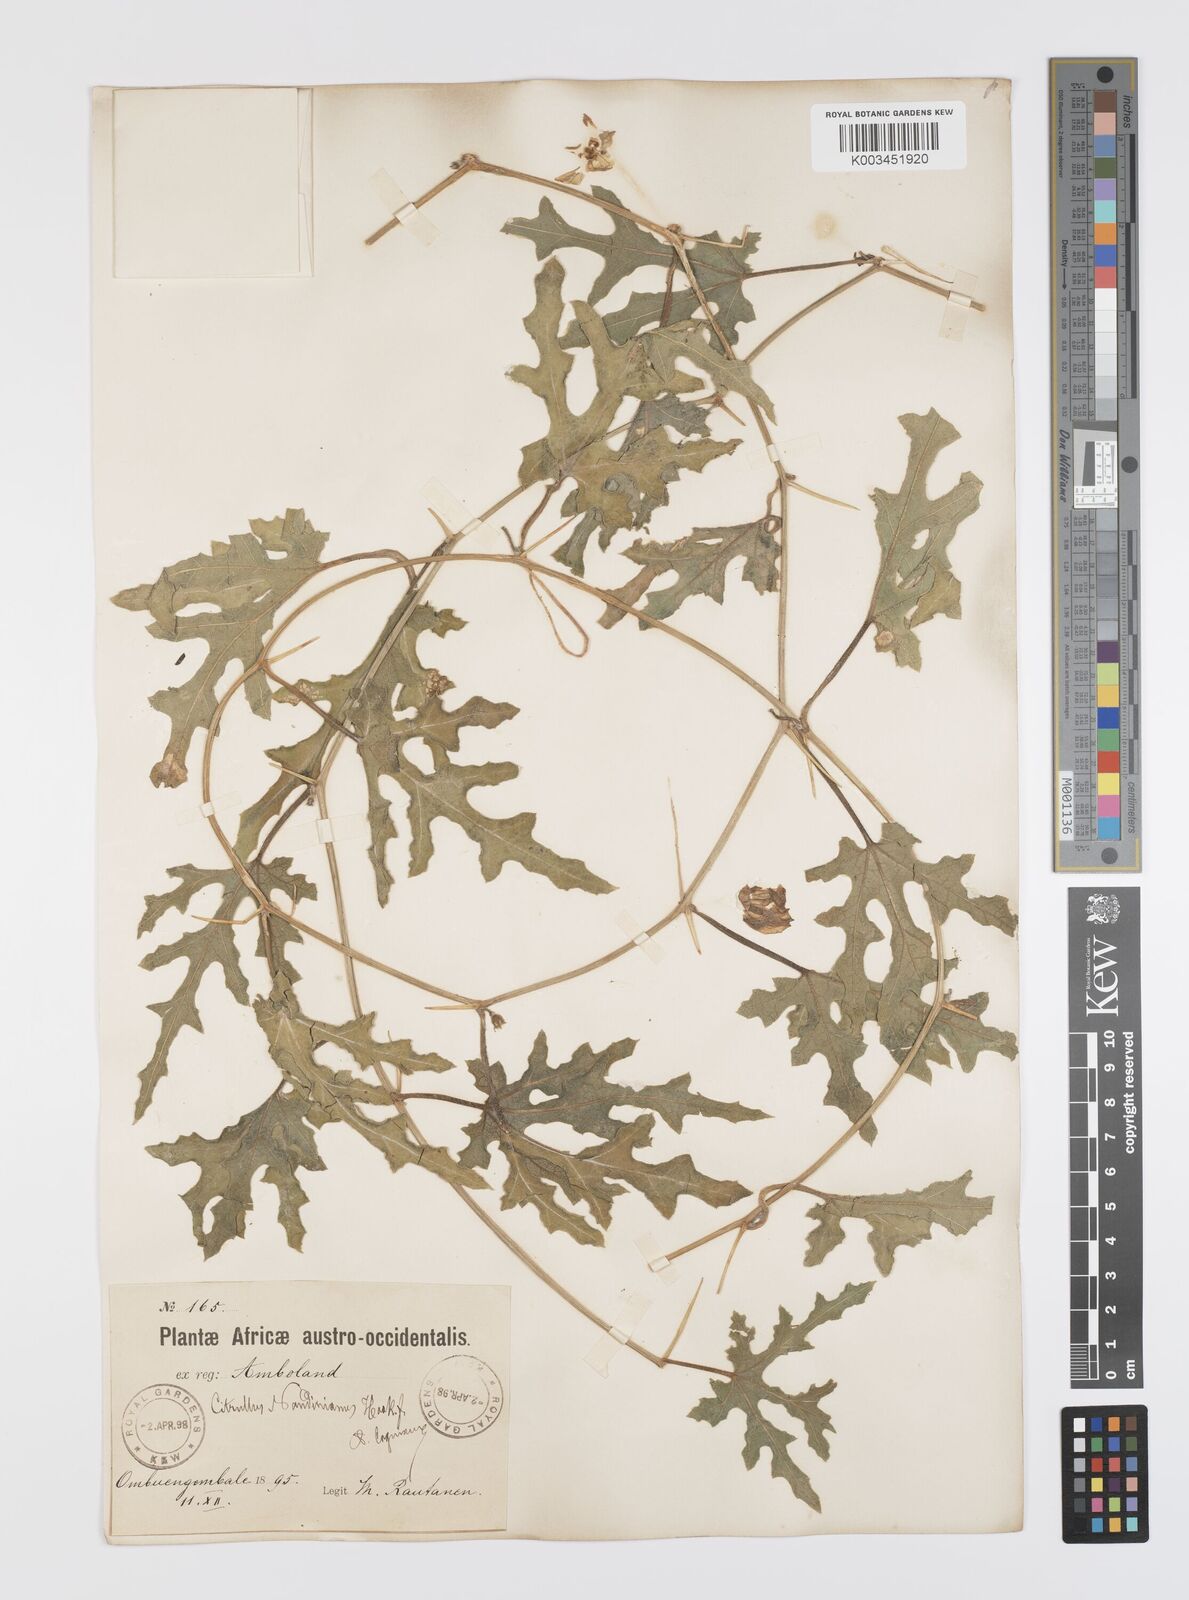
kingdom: Plantae
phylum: Tracheophyta
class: Magnoliopsida
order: Cucurbitales
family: Cucurbitaceae
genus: Citrullus
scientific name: Citrullus naudinianus
